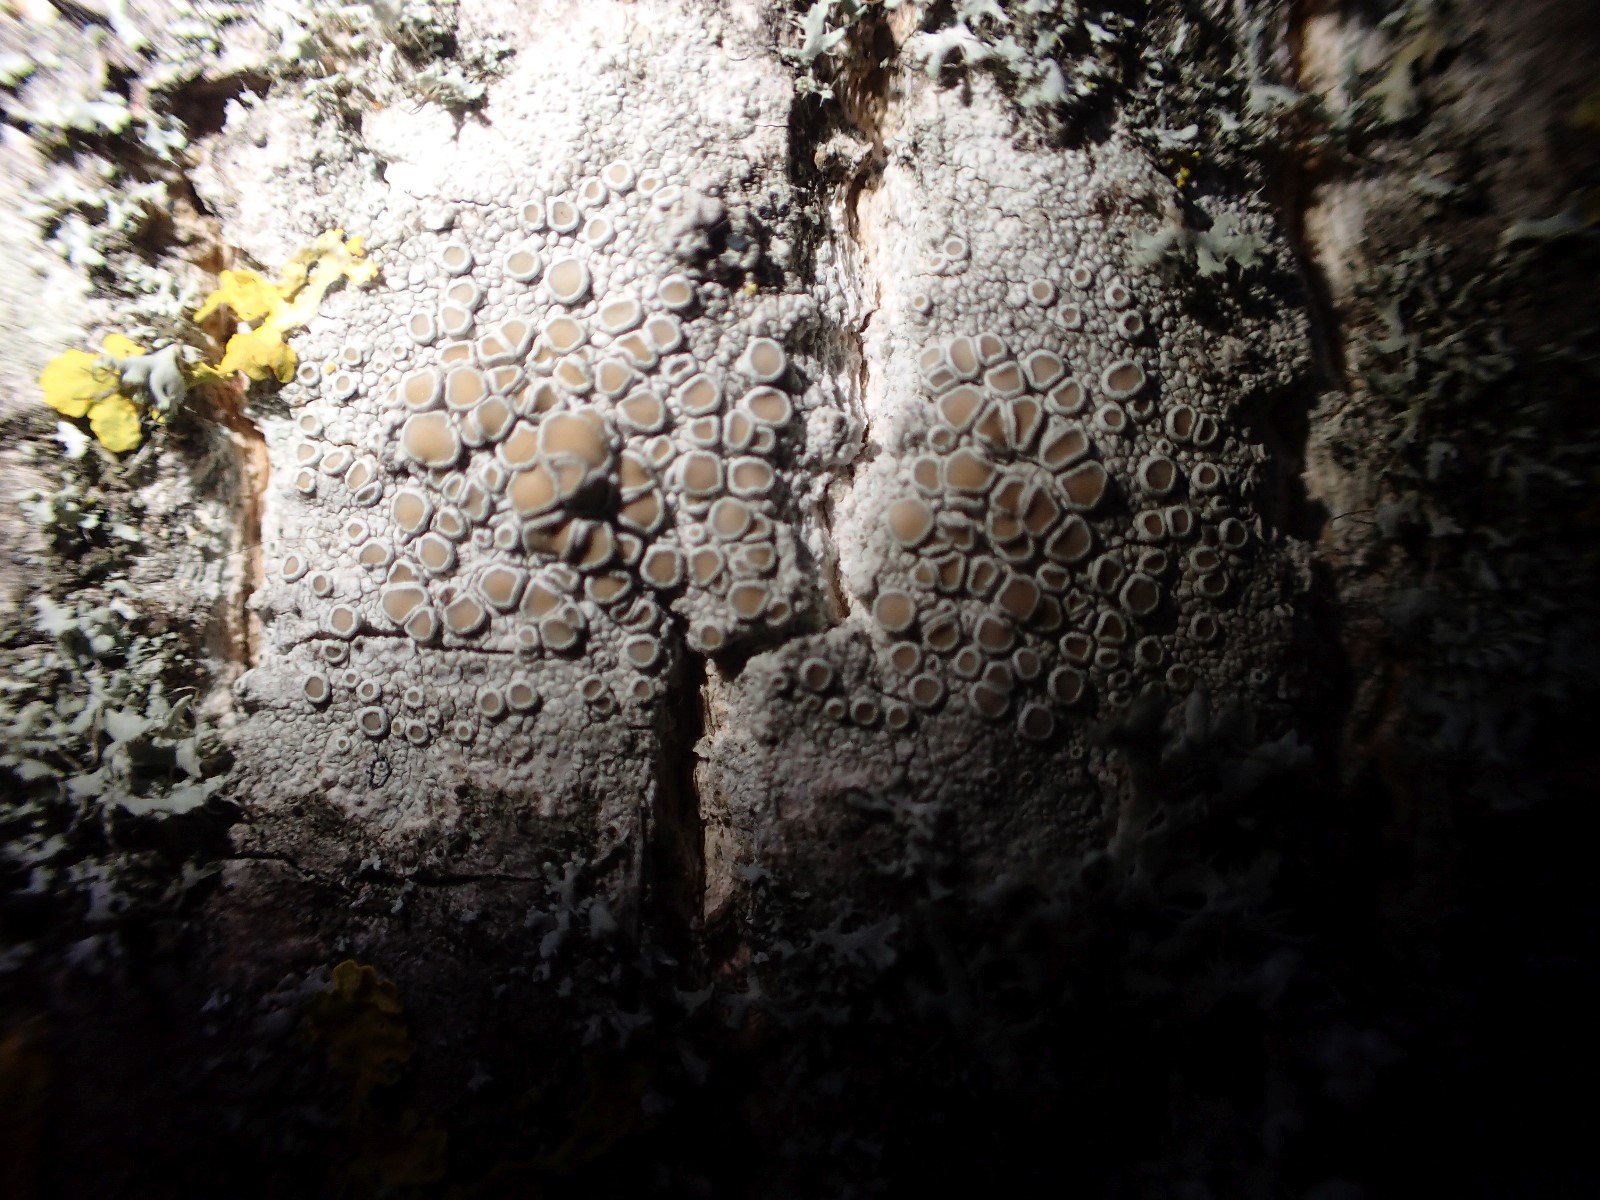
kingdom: Fungi
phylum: Ascomycota
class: Lecanoromycetes
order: Lecanorales
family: Lecanoraceae
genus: Lecanora
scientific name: Lecanora chlarotera
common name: brun kantskivelav
